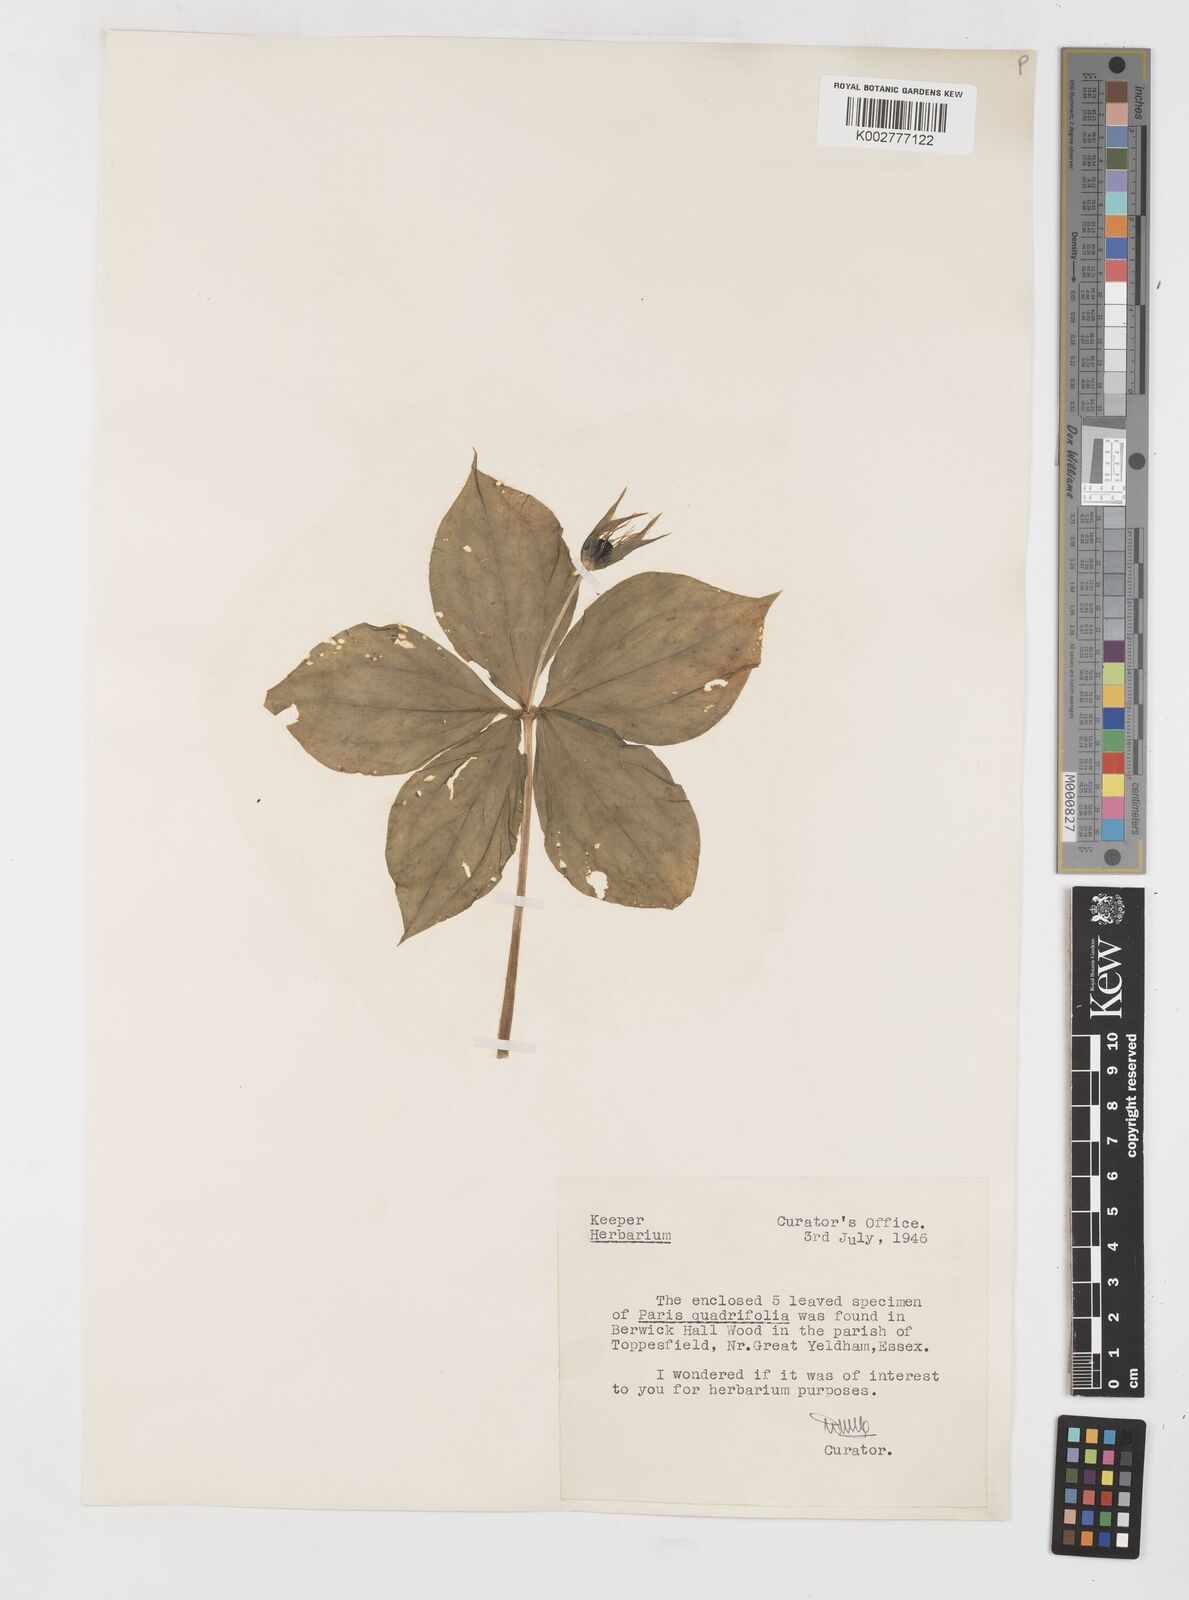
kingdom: Plantae
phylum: Tracheophyta
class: Liliopsida
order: Liliales
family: Melanthiaceae
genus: Paris
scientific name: Paris quadrifolia
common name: Herb-paris
